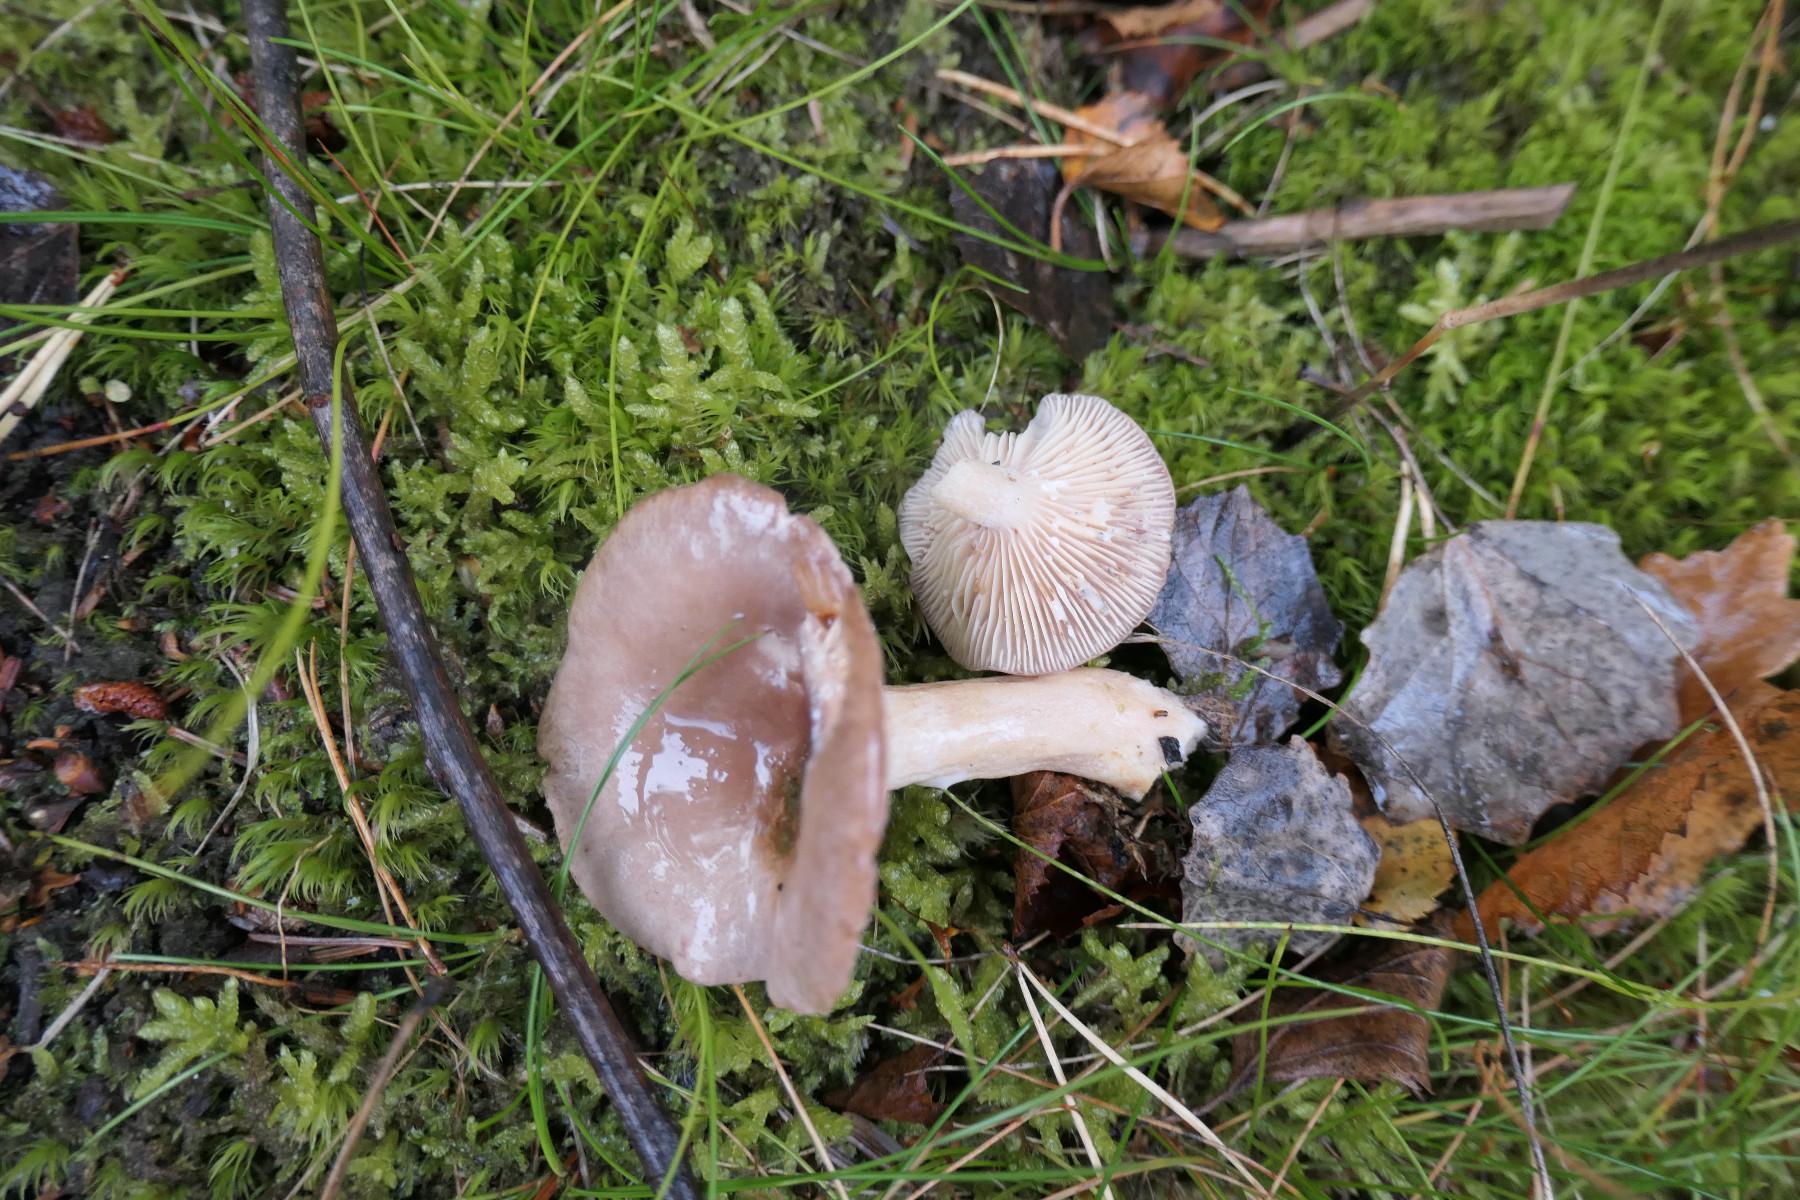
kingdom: Fungi
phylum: Basidiomycota
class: Agaricomycetes
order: Russulales
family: Russulaceae
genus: Lactarius
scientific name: Lactarius vietus
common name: violetgrå mælkehat
